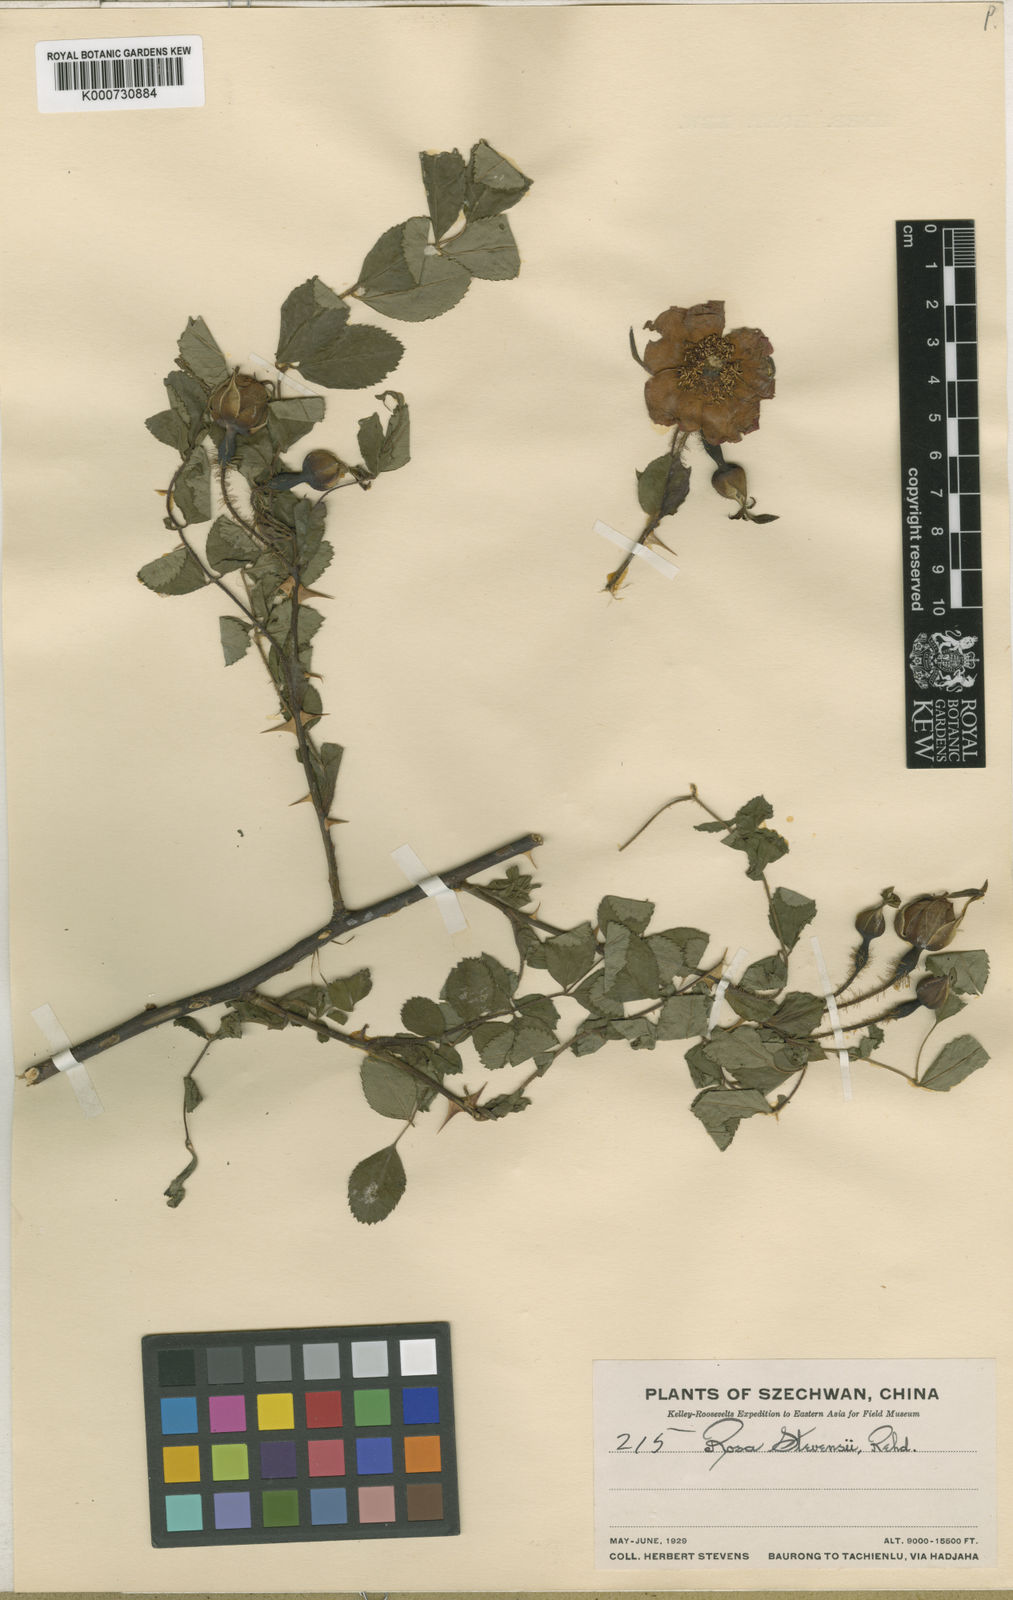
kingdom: Plantae
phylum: Tracheophyta
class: Magnoliopsida
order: Rosales
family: Rosaceae
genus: Rosa
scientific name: Rosa
